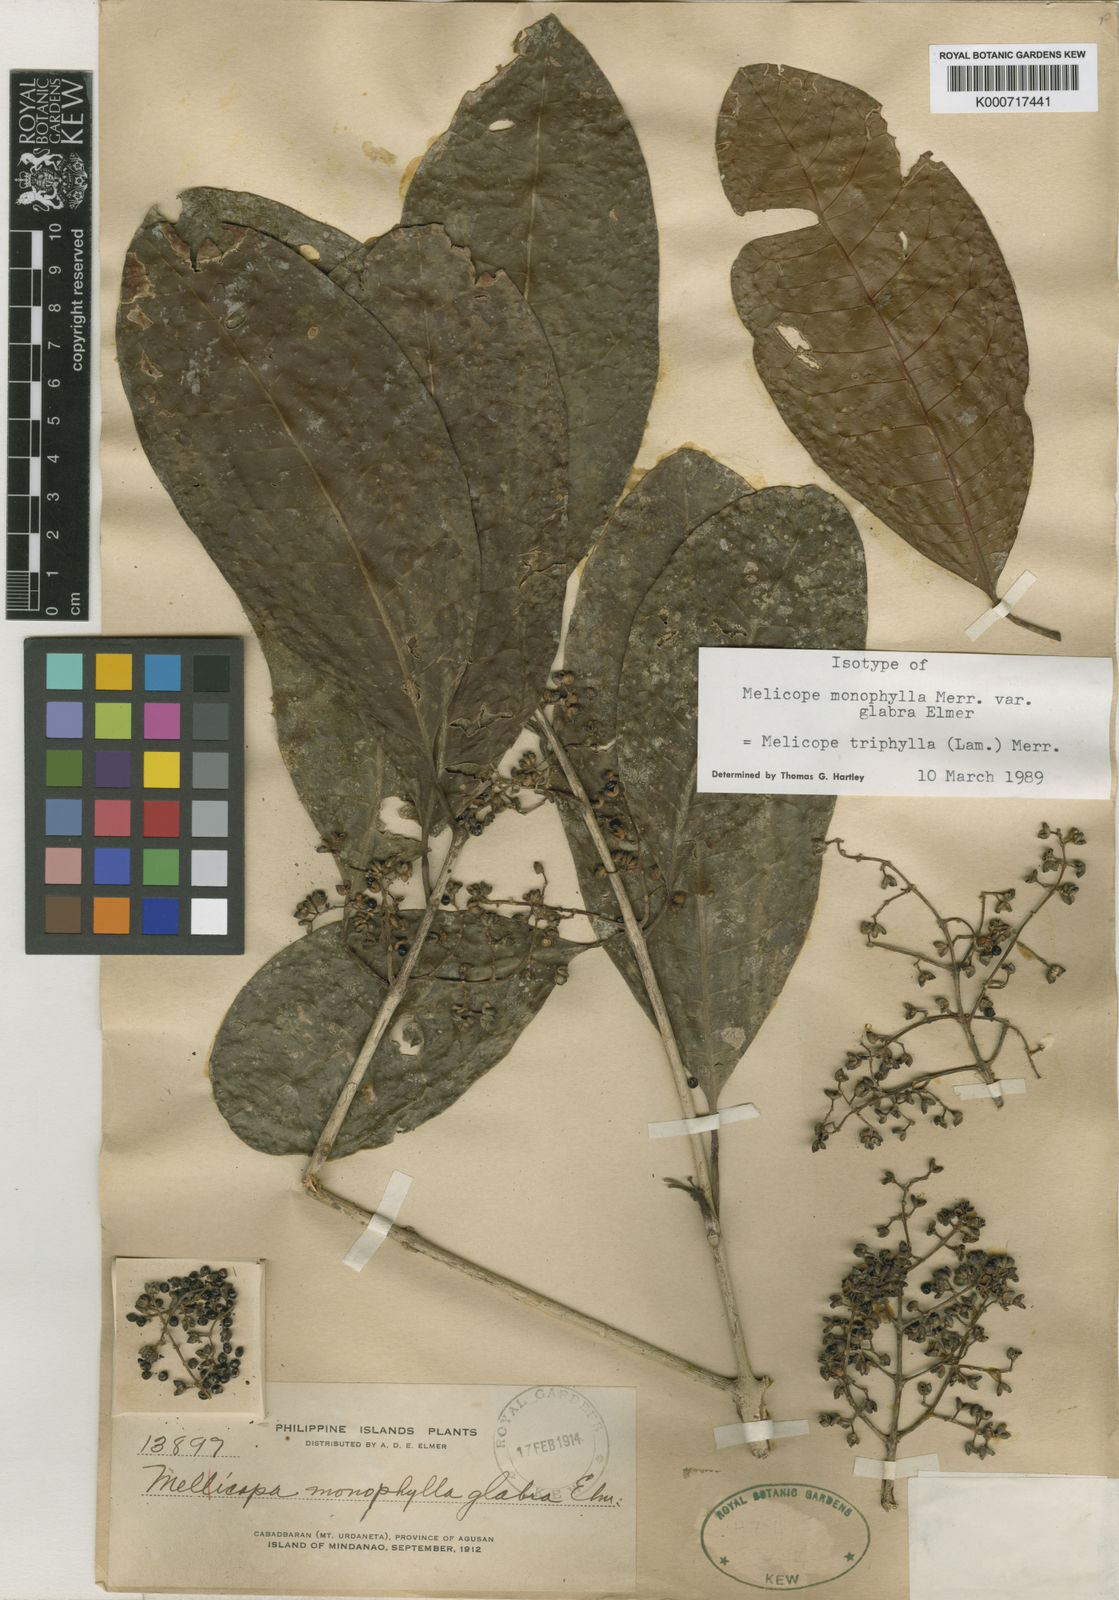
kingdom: Plantae
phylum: Tracheophyta
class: Magnoliopsida
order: Sapindales
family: Rutaceae
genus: Melicope
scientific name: Melicope triphylla
